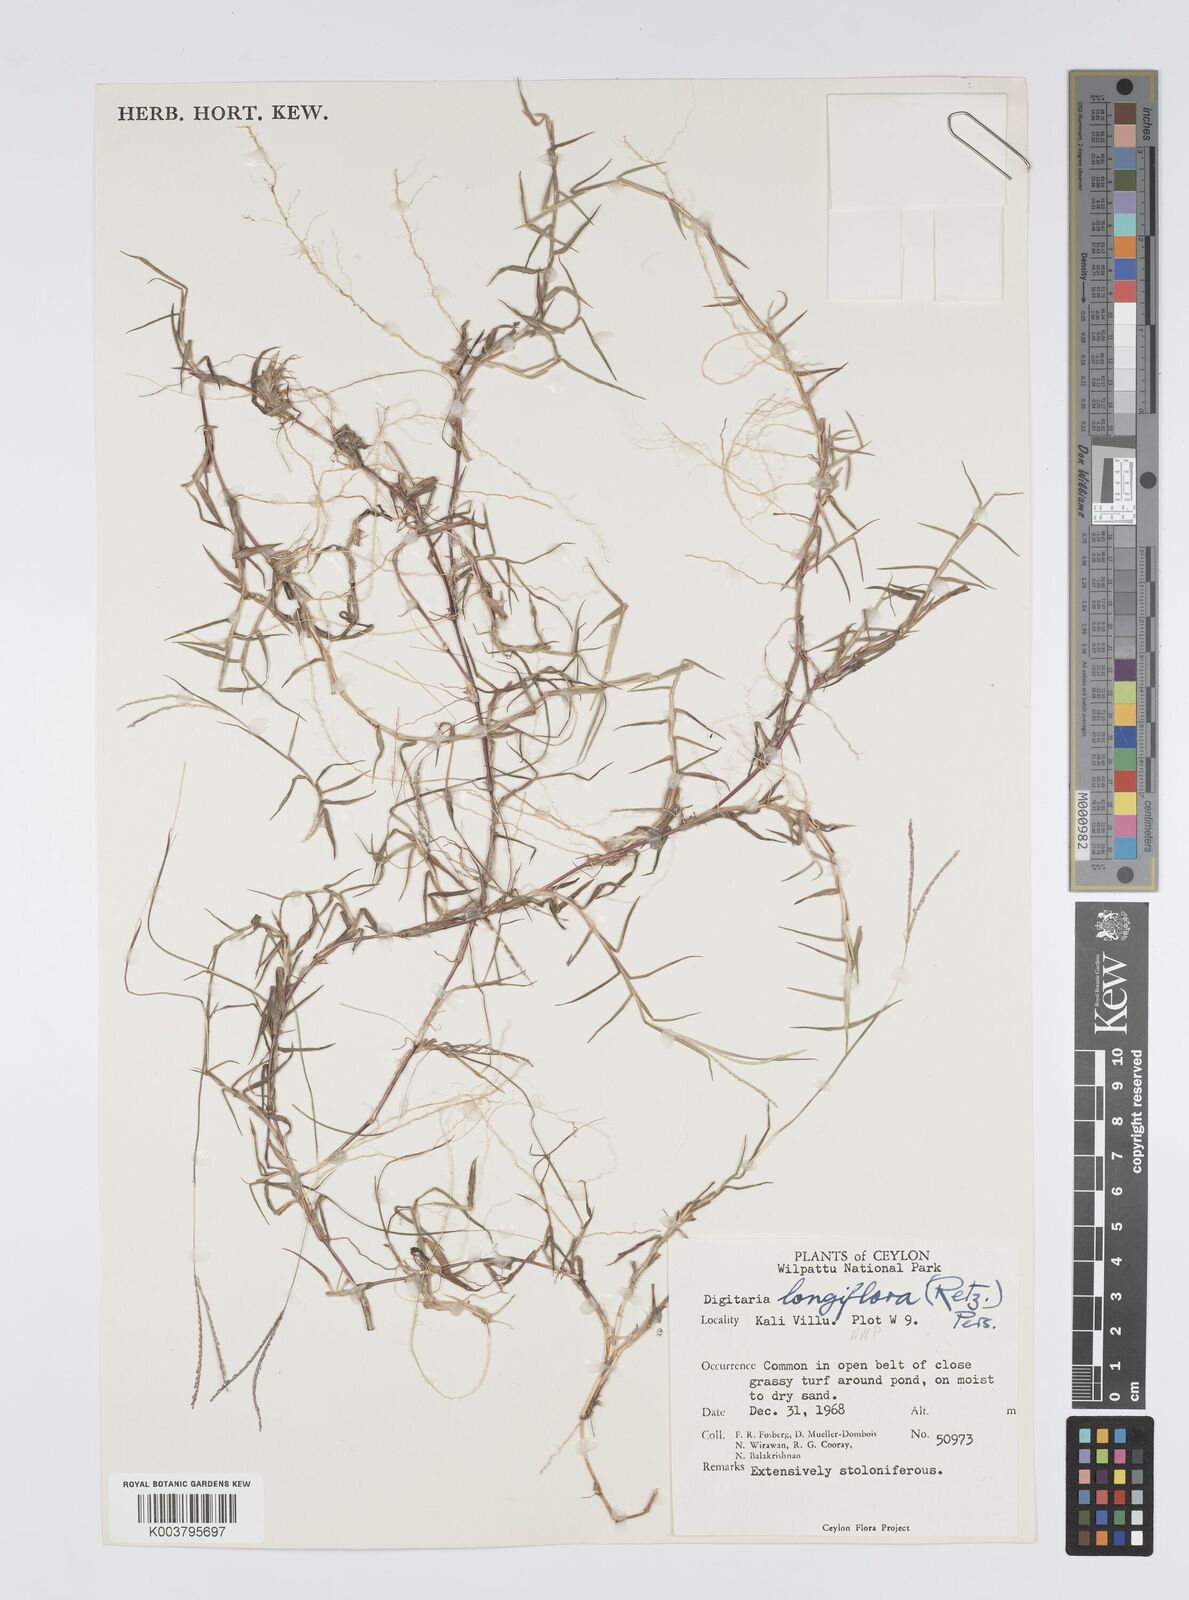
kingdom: Plantae
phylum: Tracheophyta
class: Liliopsida
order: Poales
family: Poaceae
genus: Digitaria
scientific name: Digitaria longiflora
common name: Wire crabgrass
